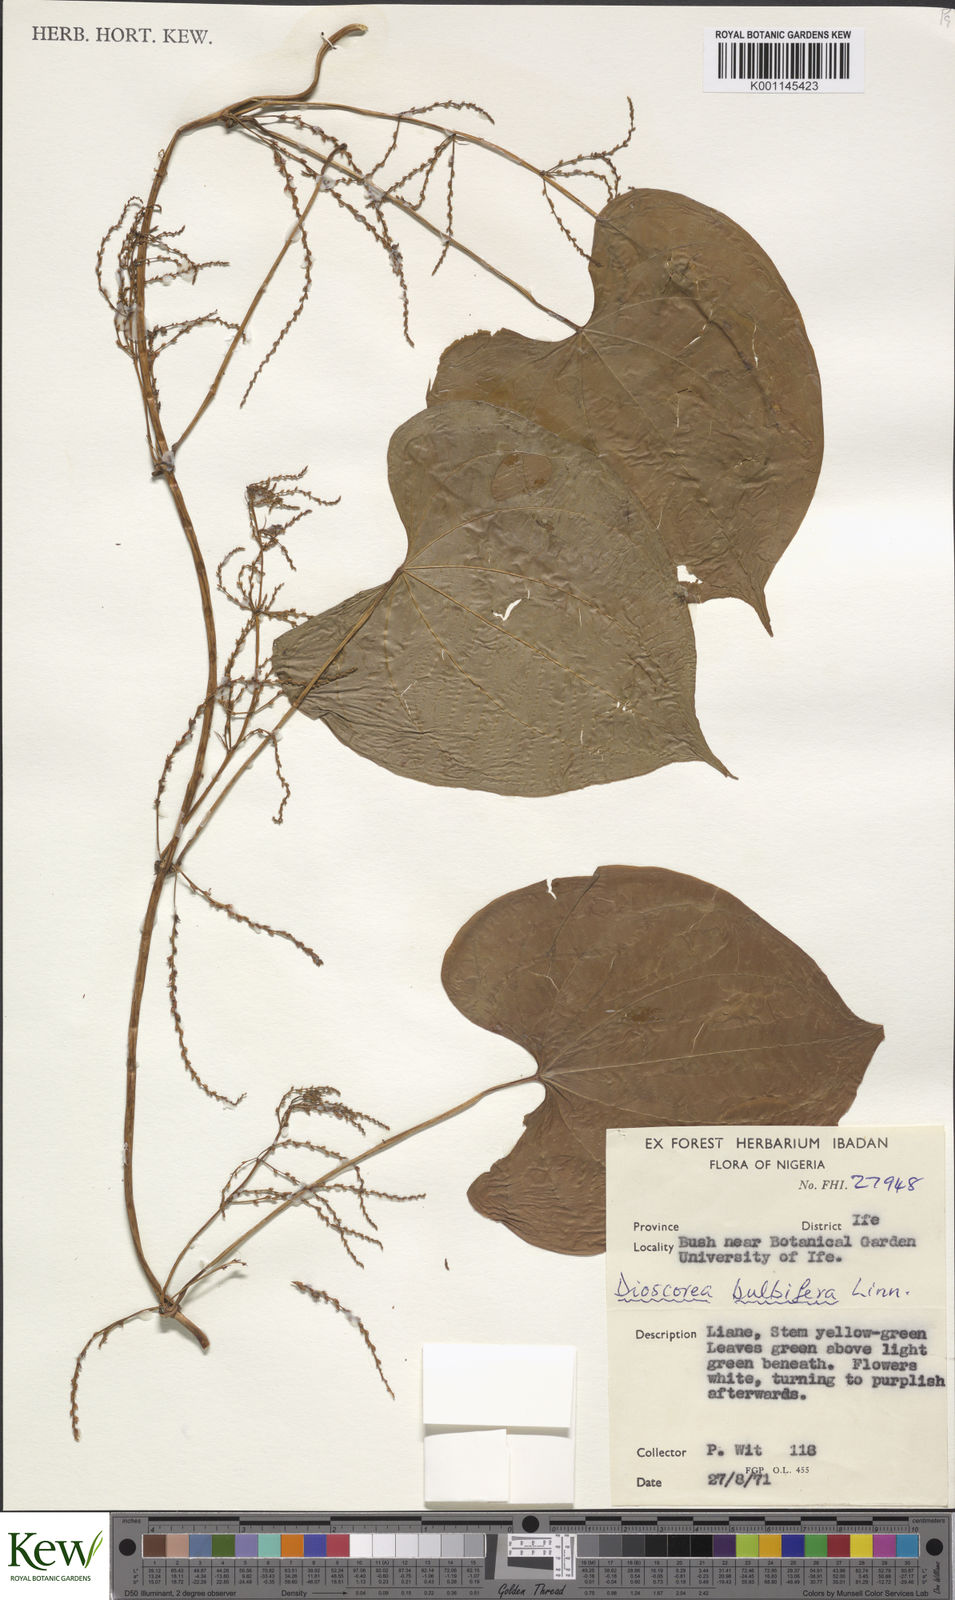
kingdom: Plantae
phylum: Tracheophyta
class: Liliopsida
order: Dioscoreales
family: Dioscoreaceae
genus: Dioscorea
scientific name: Dioscorea bulbifera
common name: Air yam
